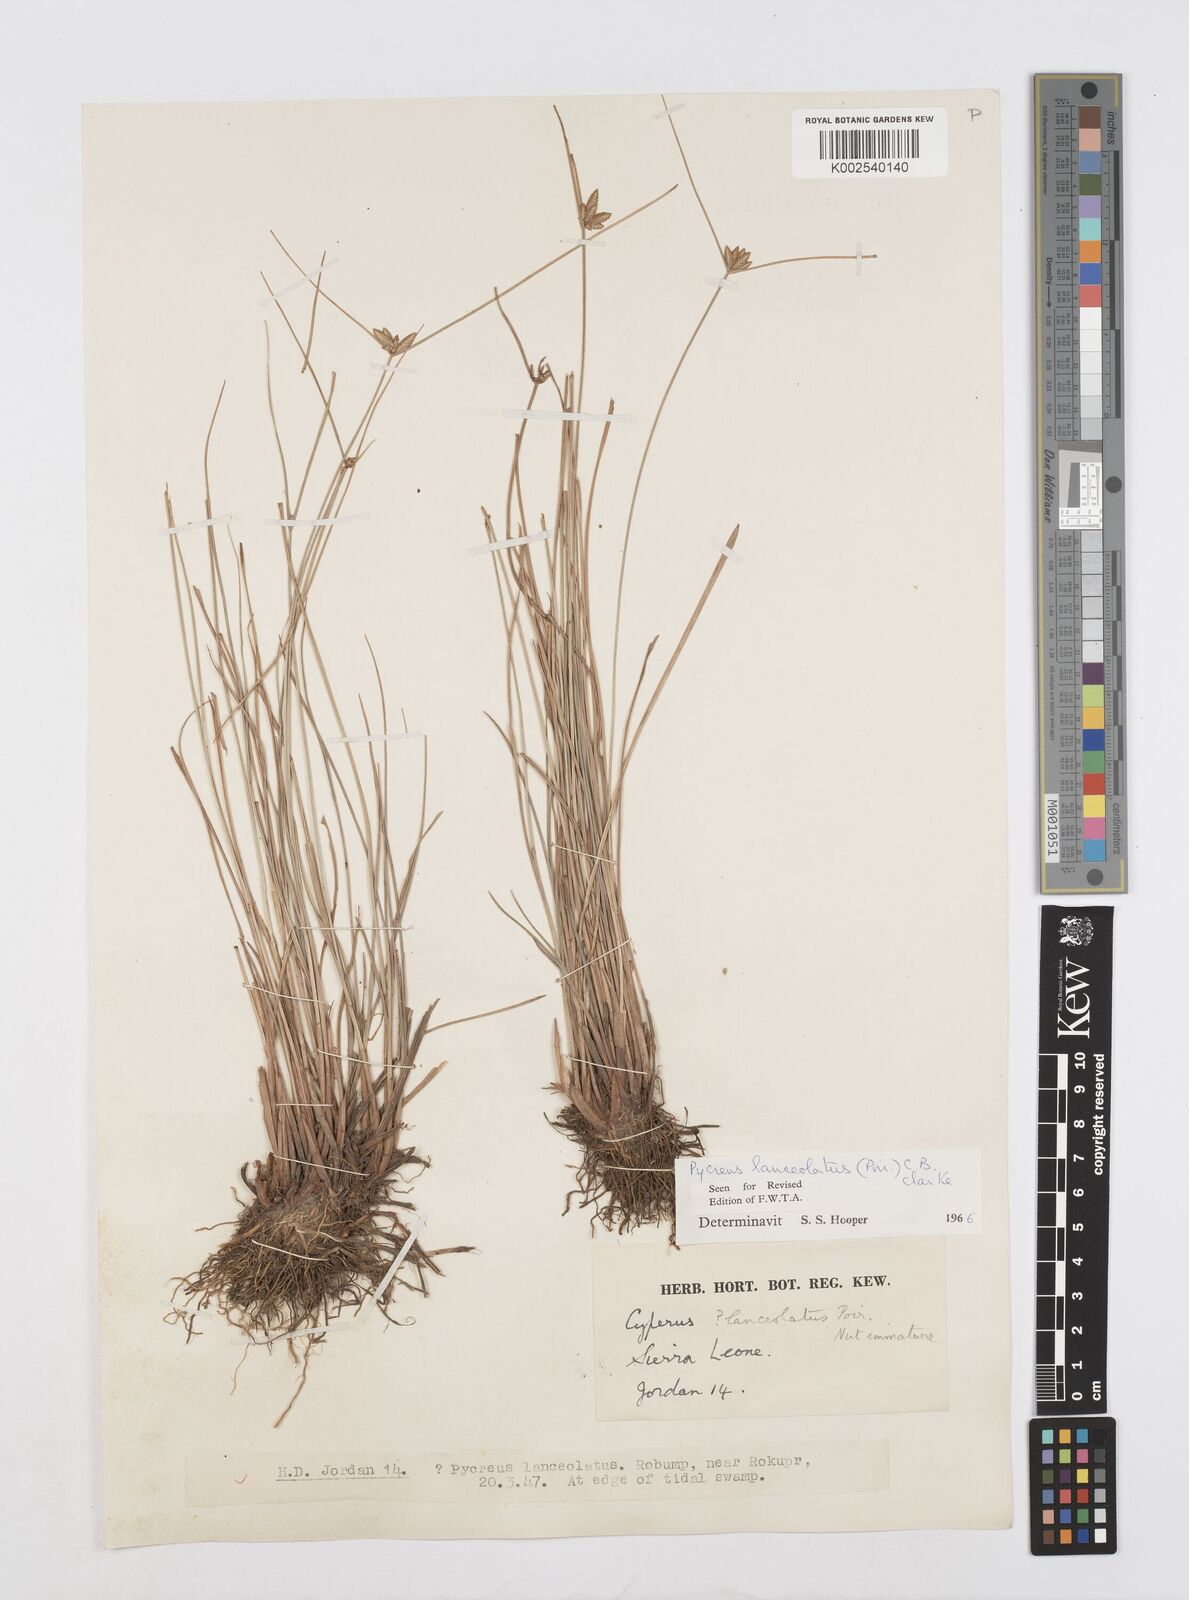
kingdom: Plantae
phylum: Tracheophyta
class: Liliopsida
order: Poales
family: Cyperaceae
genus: Cyperus
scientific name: Cyperus
